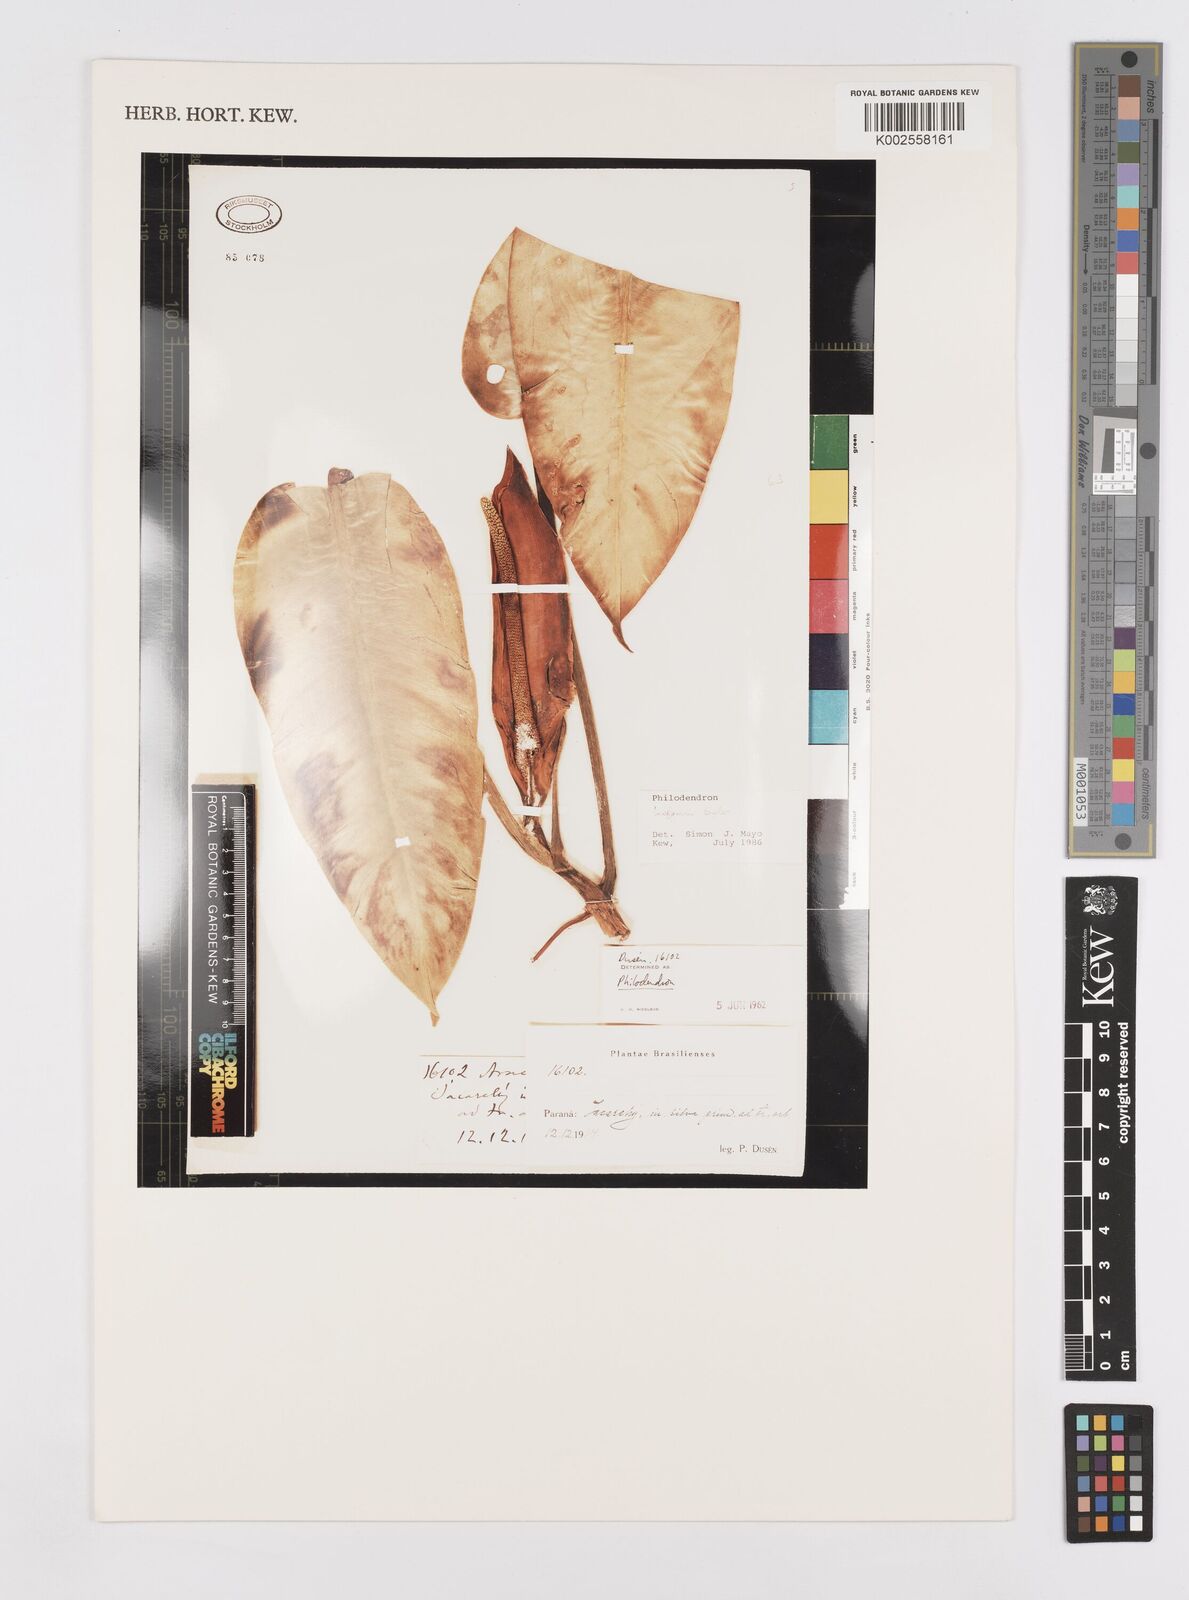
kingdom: Plantae
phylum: Tracheophyta
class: Liliopsida
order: Alismatales
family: Araceae
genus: Philodendron
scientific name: Philodendron loefgrenii
